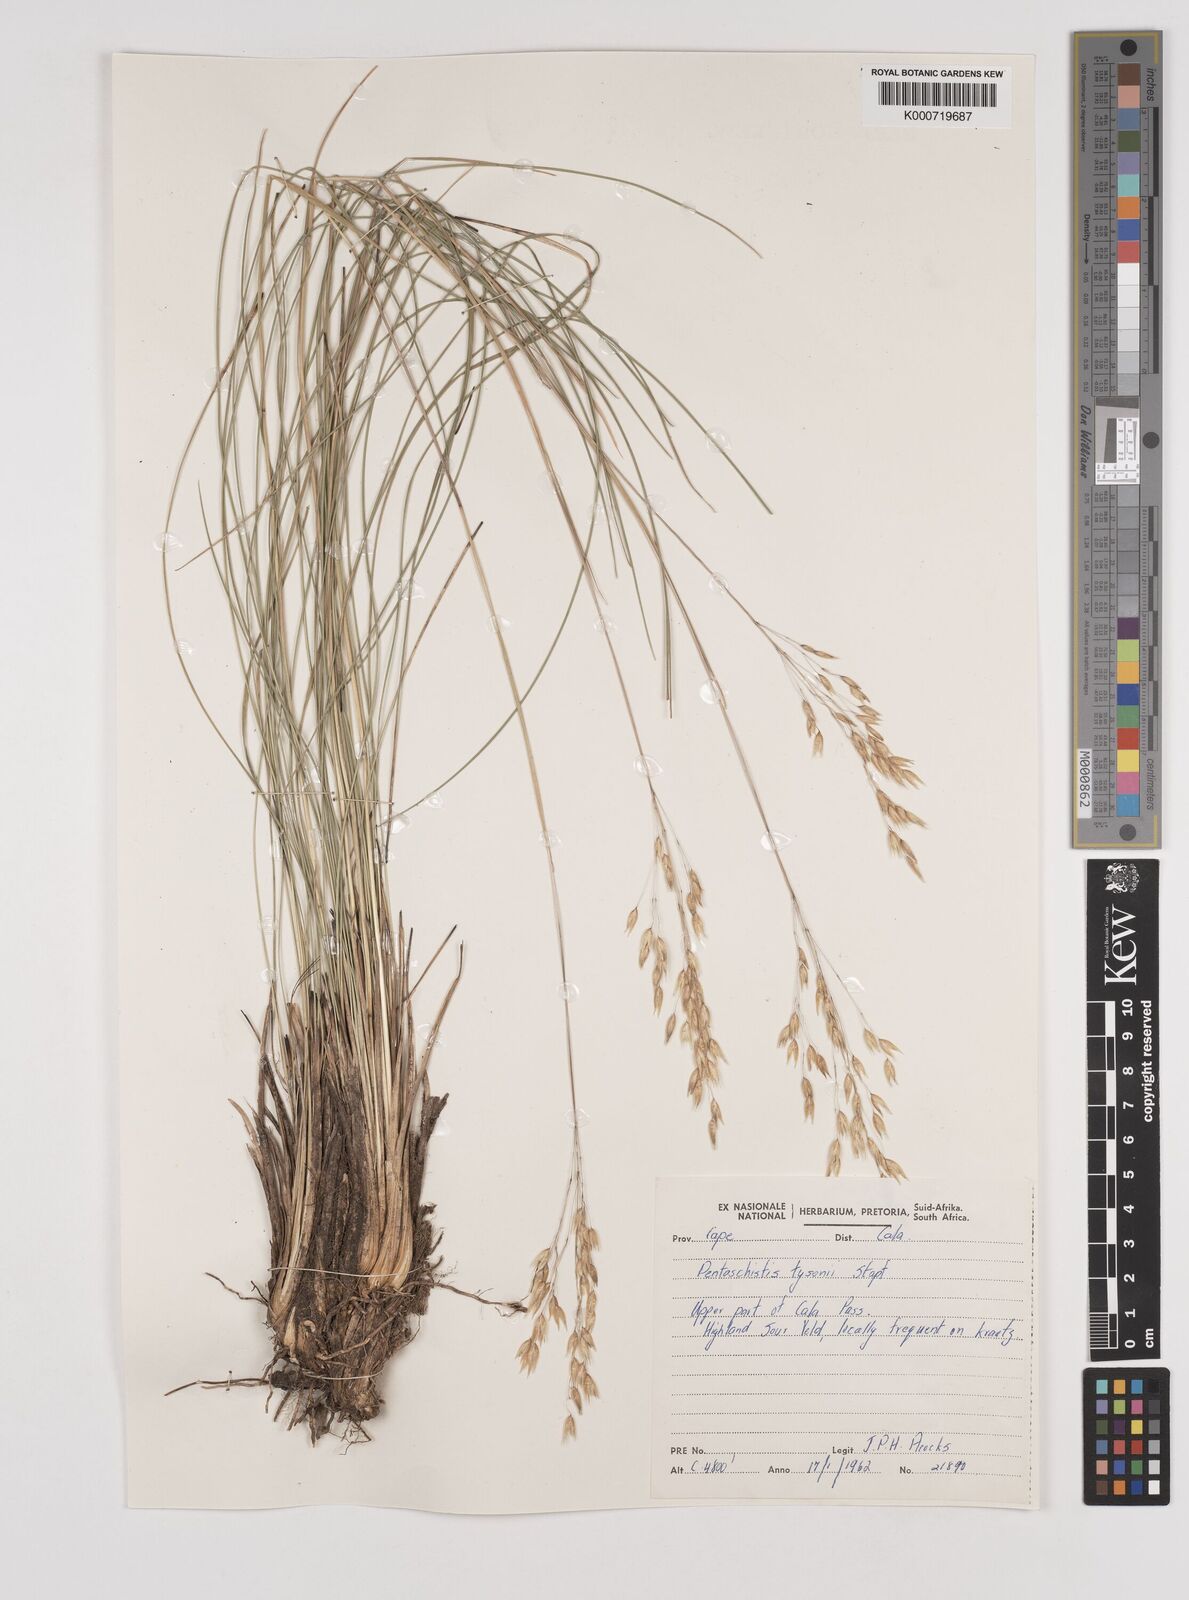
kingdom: Plantae
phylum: Tracheophyta
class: Liliopsida
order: Poales
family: Poaceae
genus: Pentameris
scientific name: Pentameris tysonii
